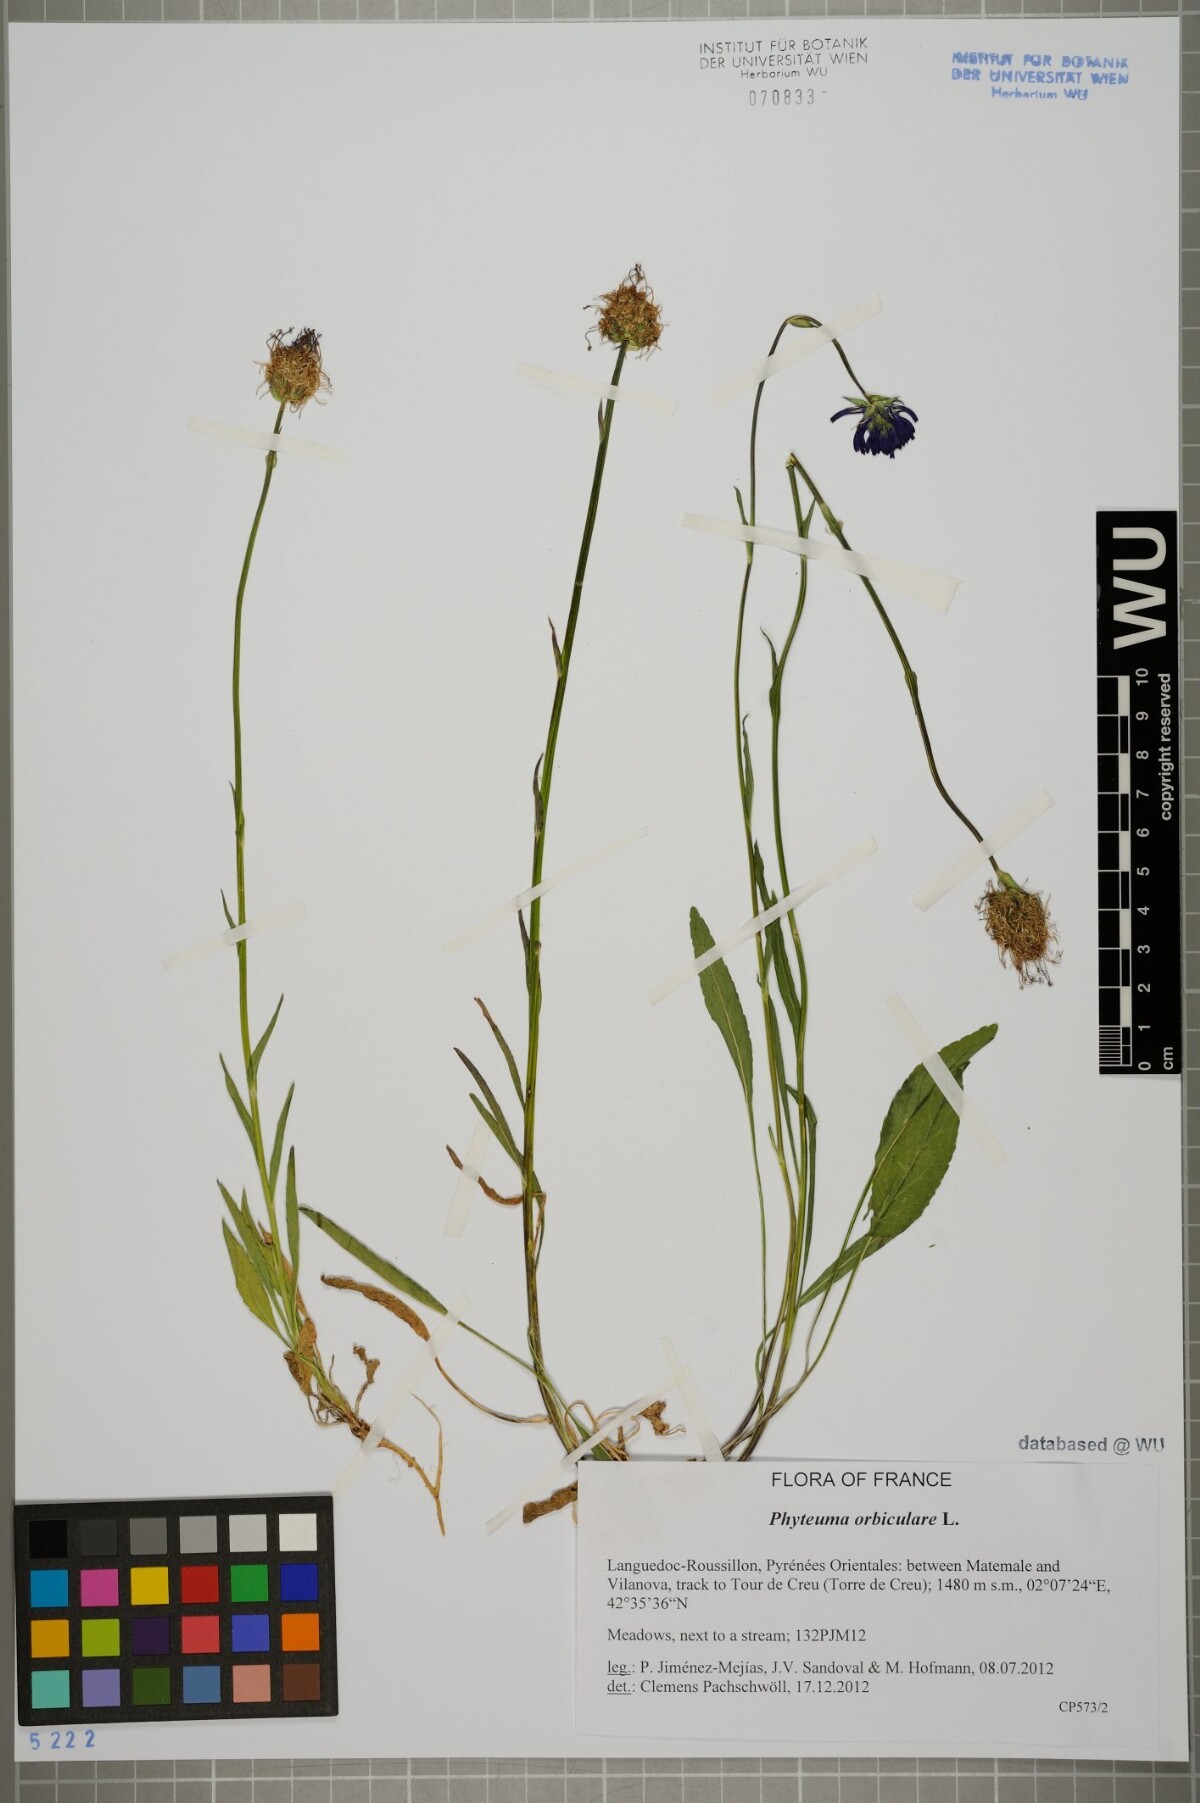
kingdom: Plantae
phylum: Tracheophyta
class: Magnoliopsida
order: Asterales
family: Campanulaceae
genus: Phyteuma
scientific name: Phyteuma orbiculare
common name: Round-headed rampion
